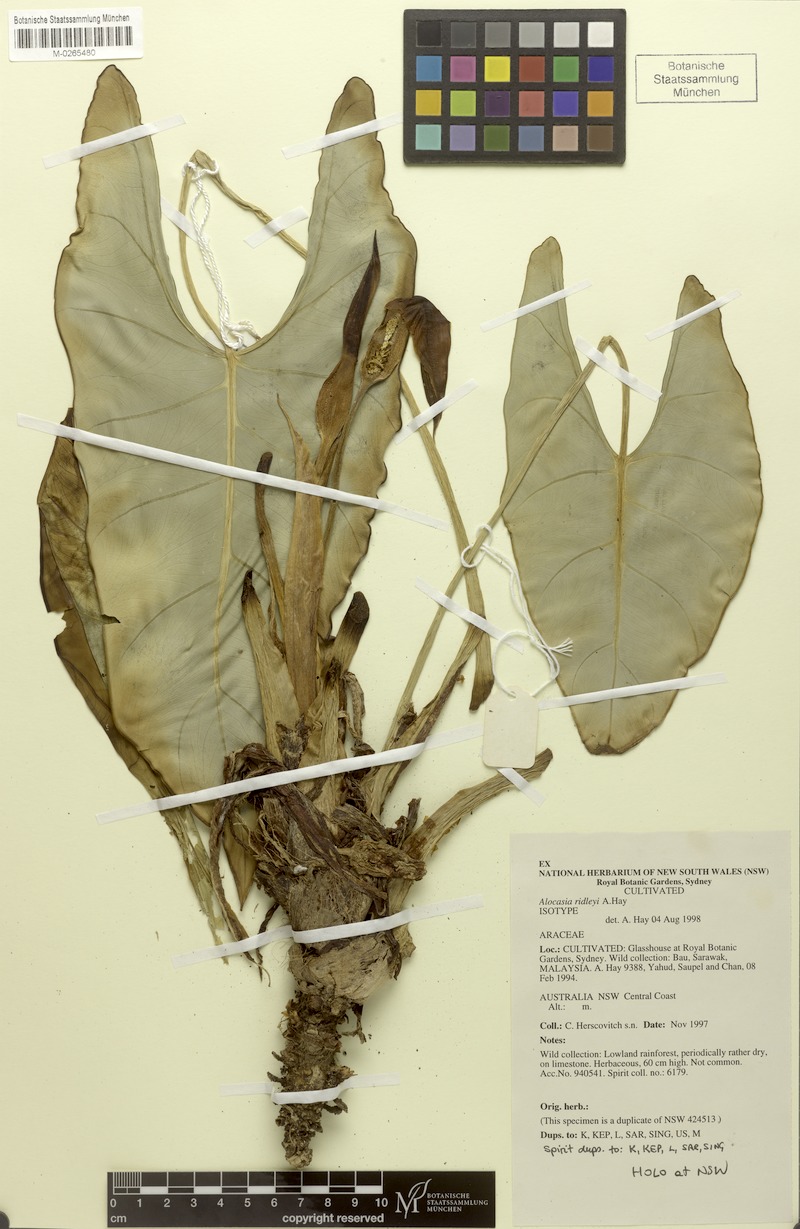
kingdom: Plantae
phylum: Tracheophyta
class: Liliopsida
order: Alismatales
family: Araceae
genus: Alocasia
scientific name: Alocasia ridleyi
